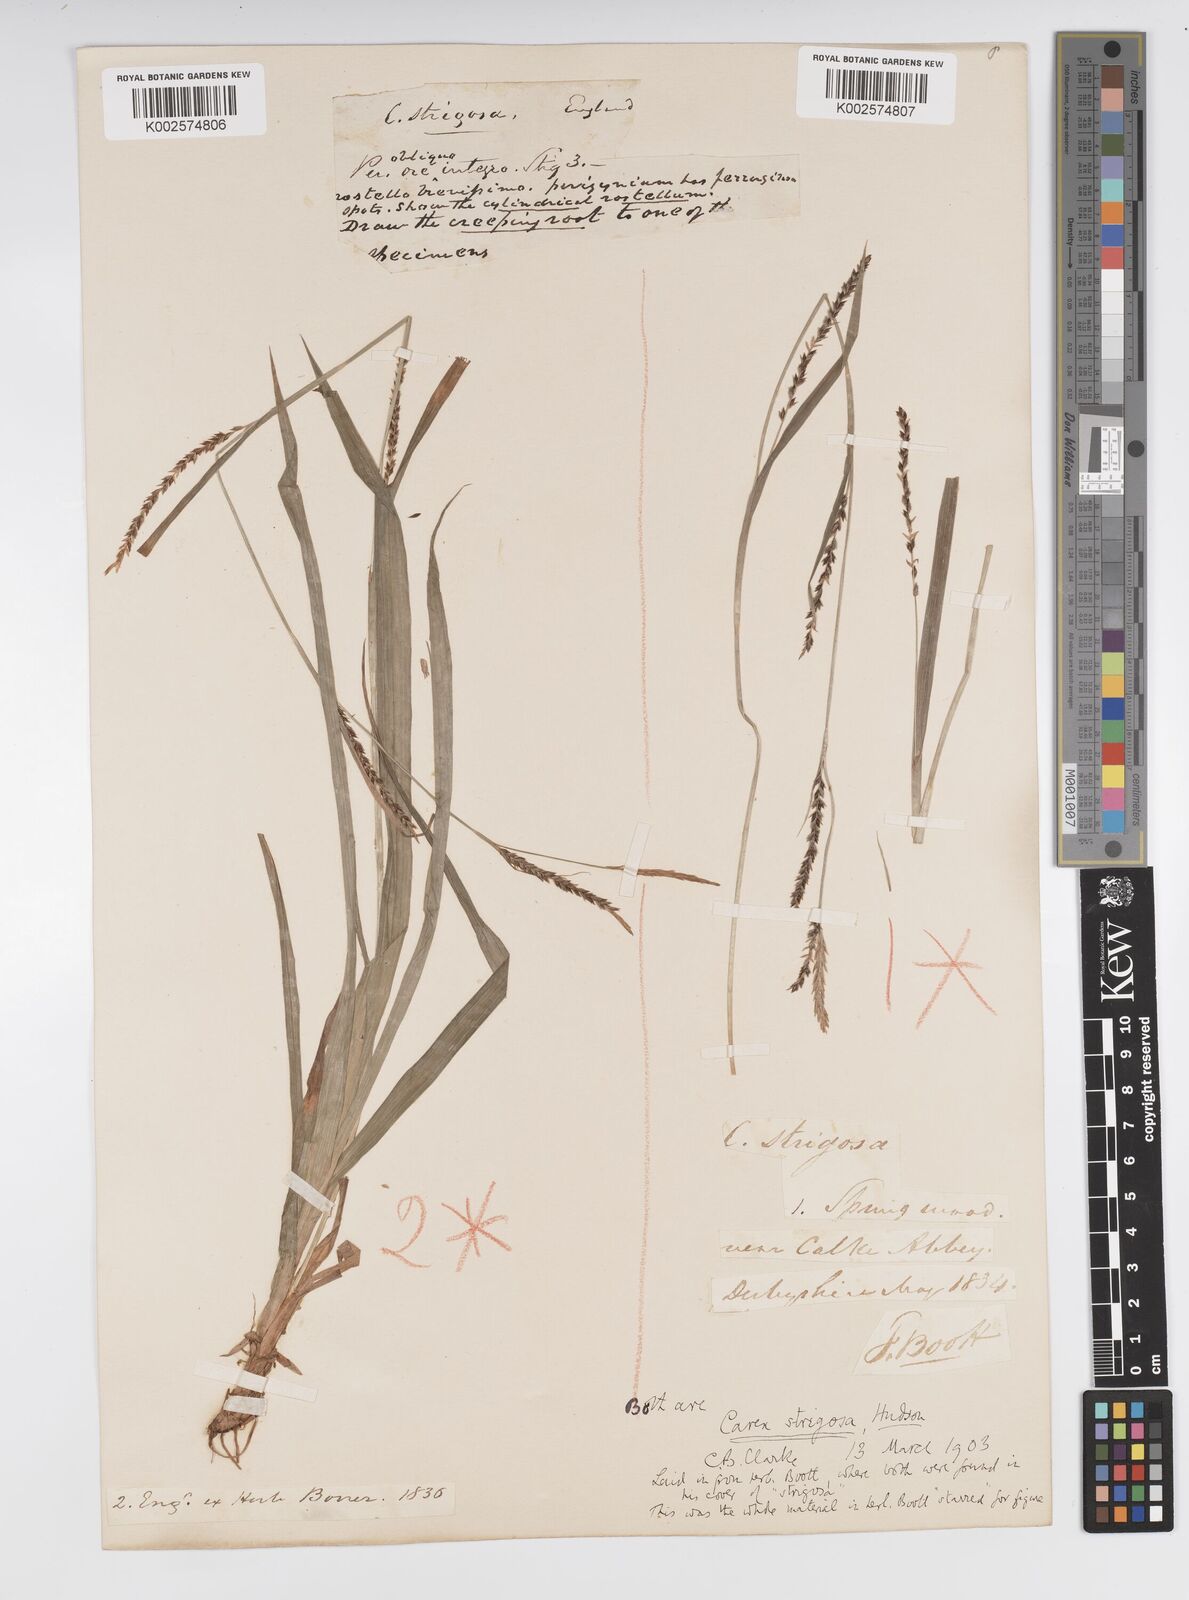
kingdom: Plantae
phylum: Tracheophyta
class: Liliopsida
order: Poales
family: Cyperaceae
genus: Carex
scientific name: Carex strigosa
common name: Thin-spiked wood-sedge
